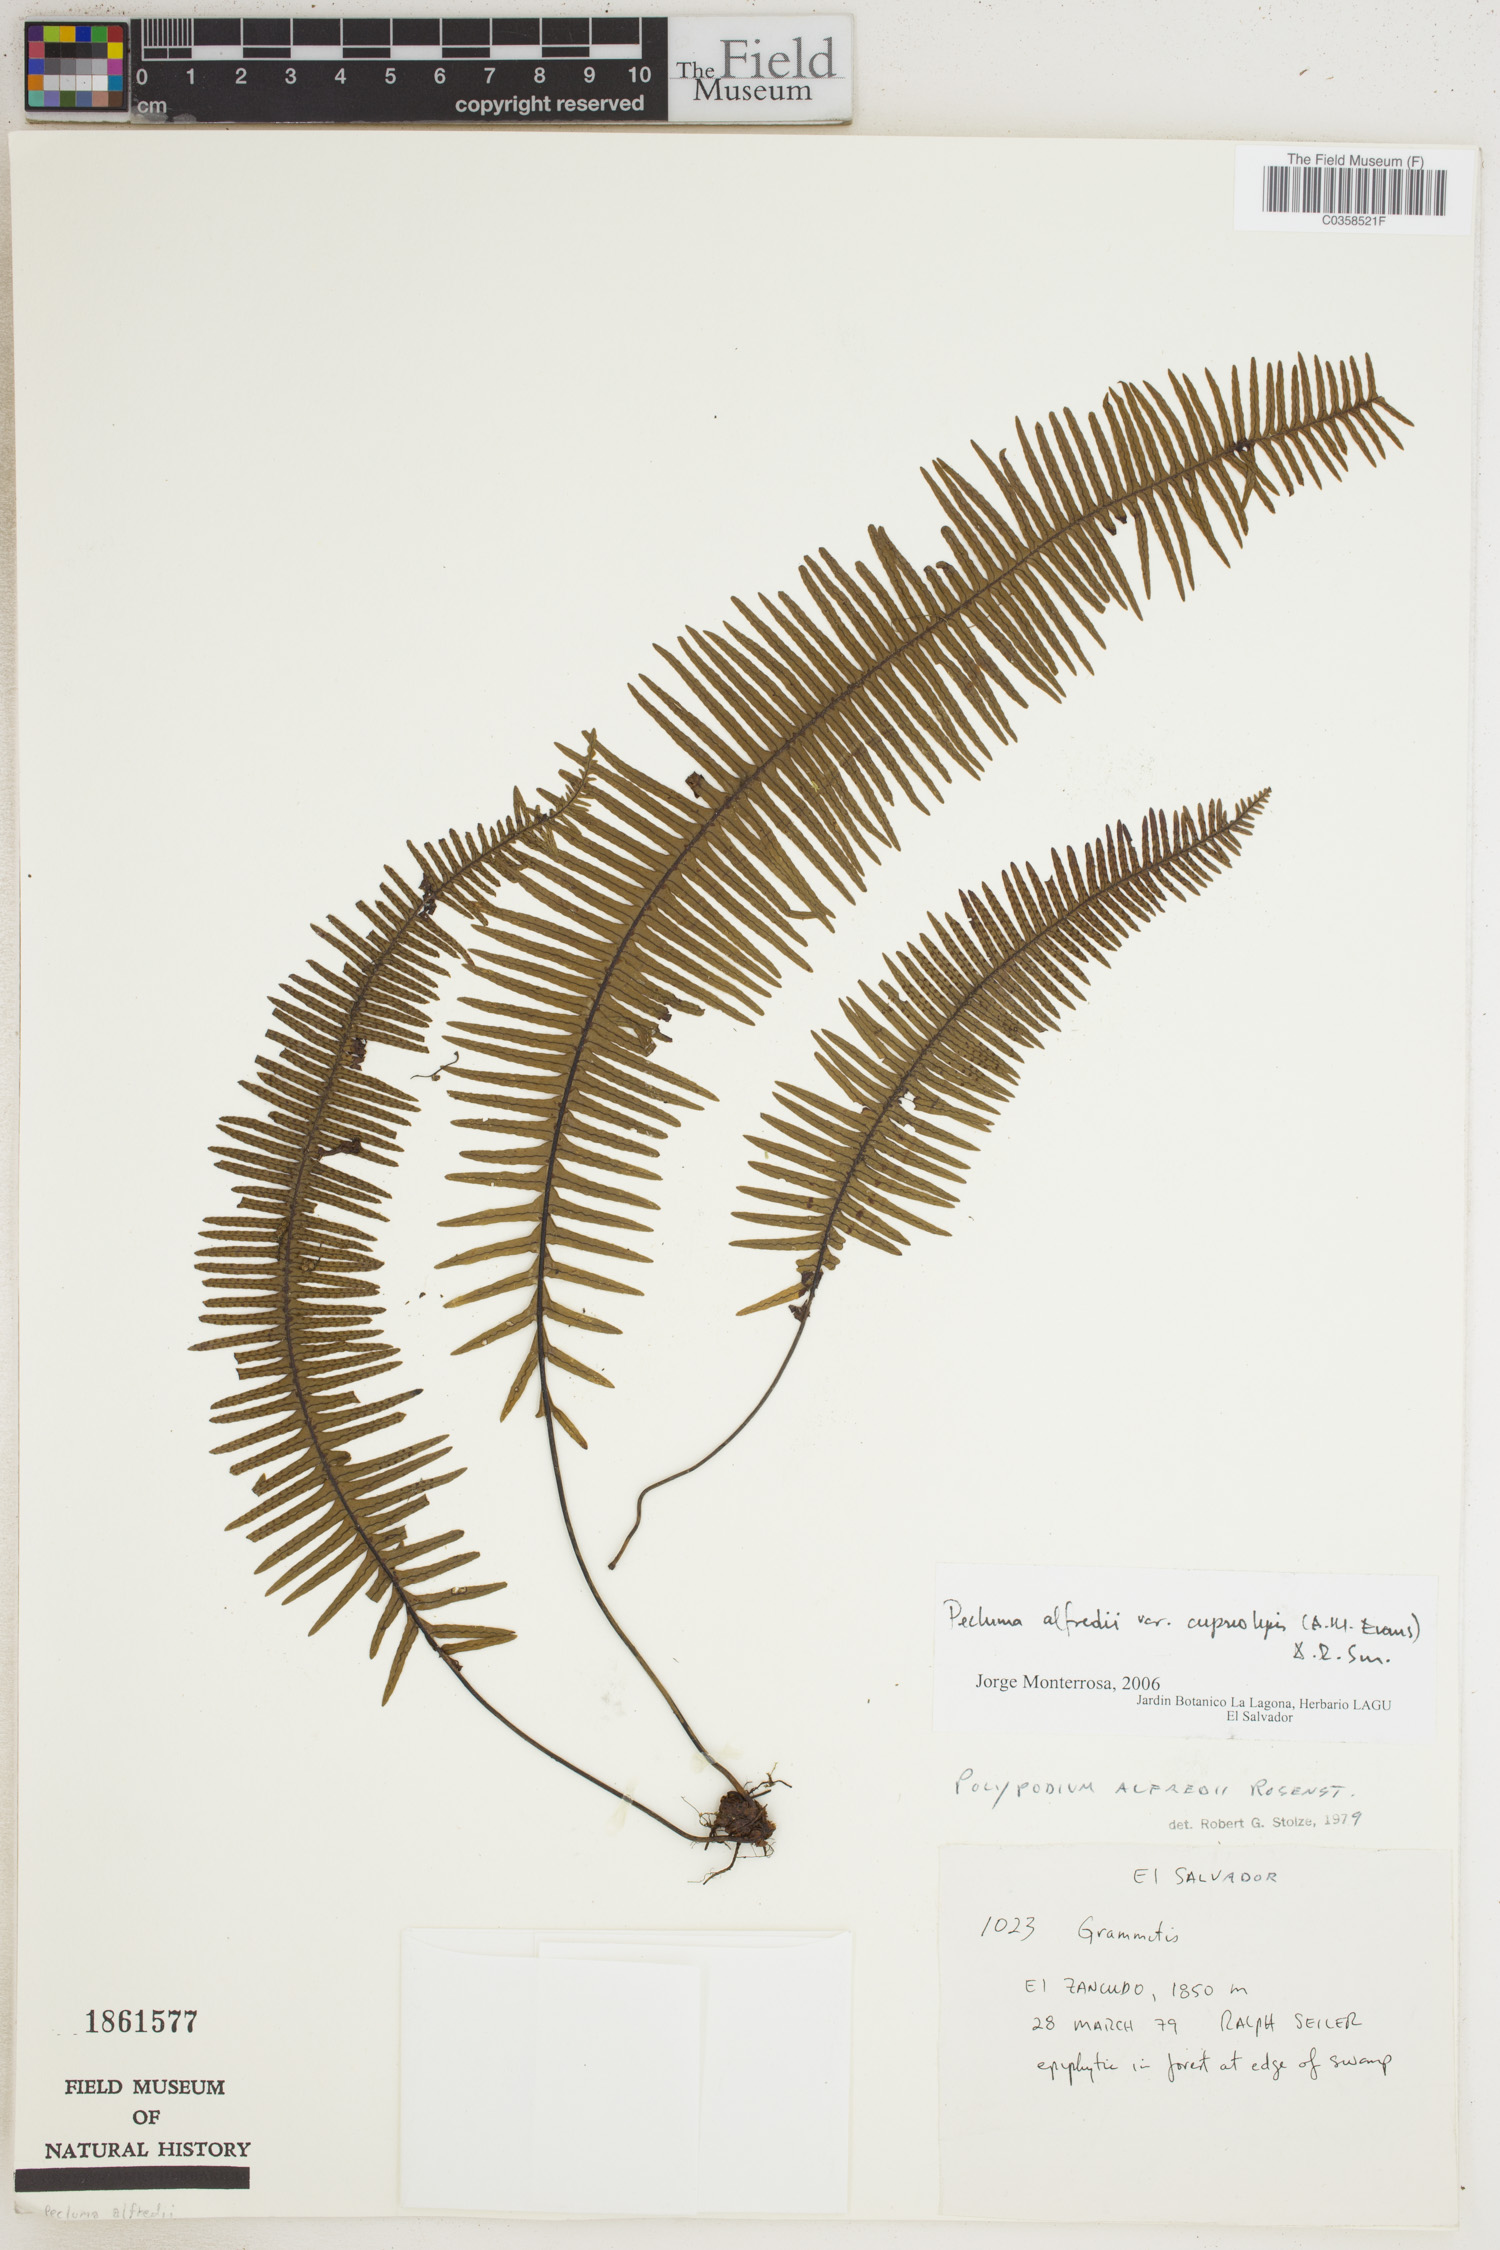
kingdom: Plantae
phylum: Tracheophyta
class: Polypodiopsida
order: Polypodiales
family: Polypodiaceae
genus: Pecluma
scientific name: Pecluma alfredii
